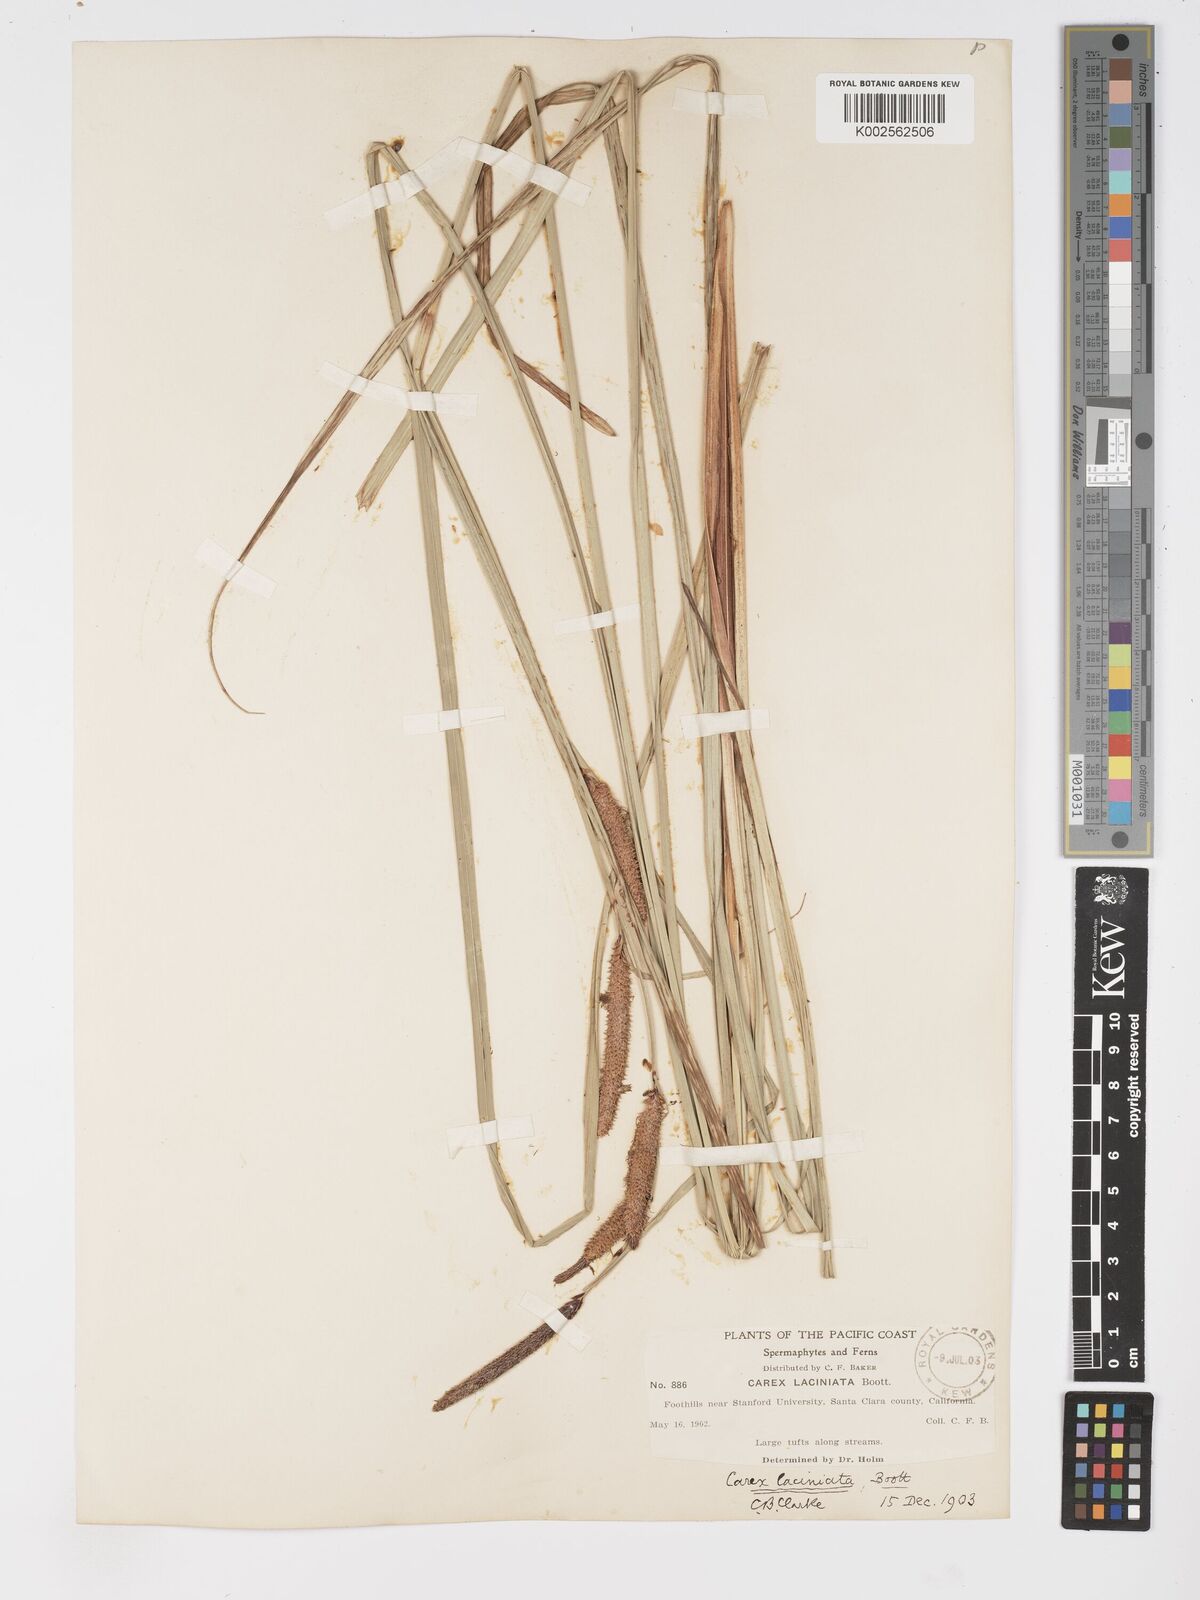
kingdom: Plantae
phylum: Tracheophyta
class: Liliopsida
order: Poales
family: Cyperaceae
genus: Carex
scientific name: Carex barbarae
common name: Santa barbara sedge
